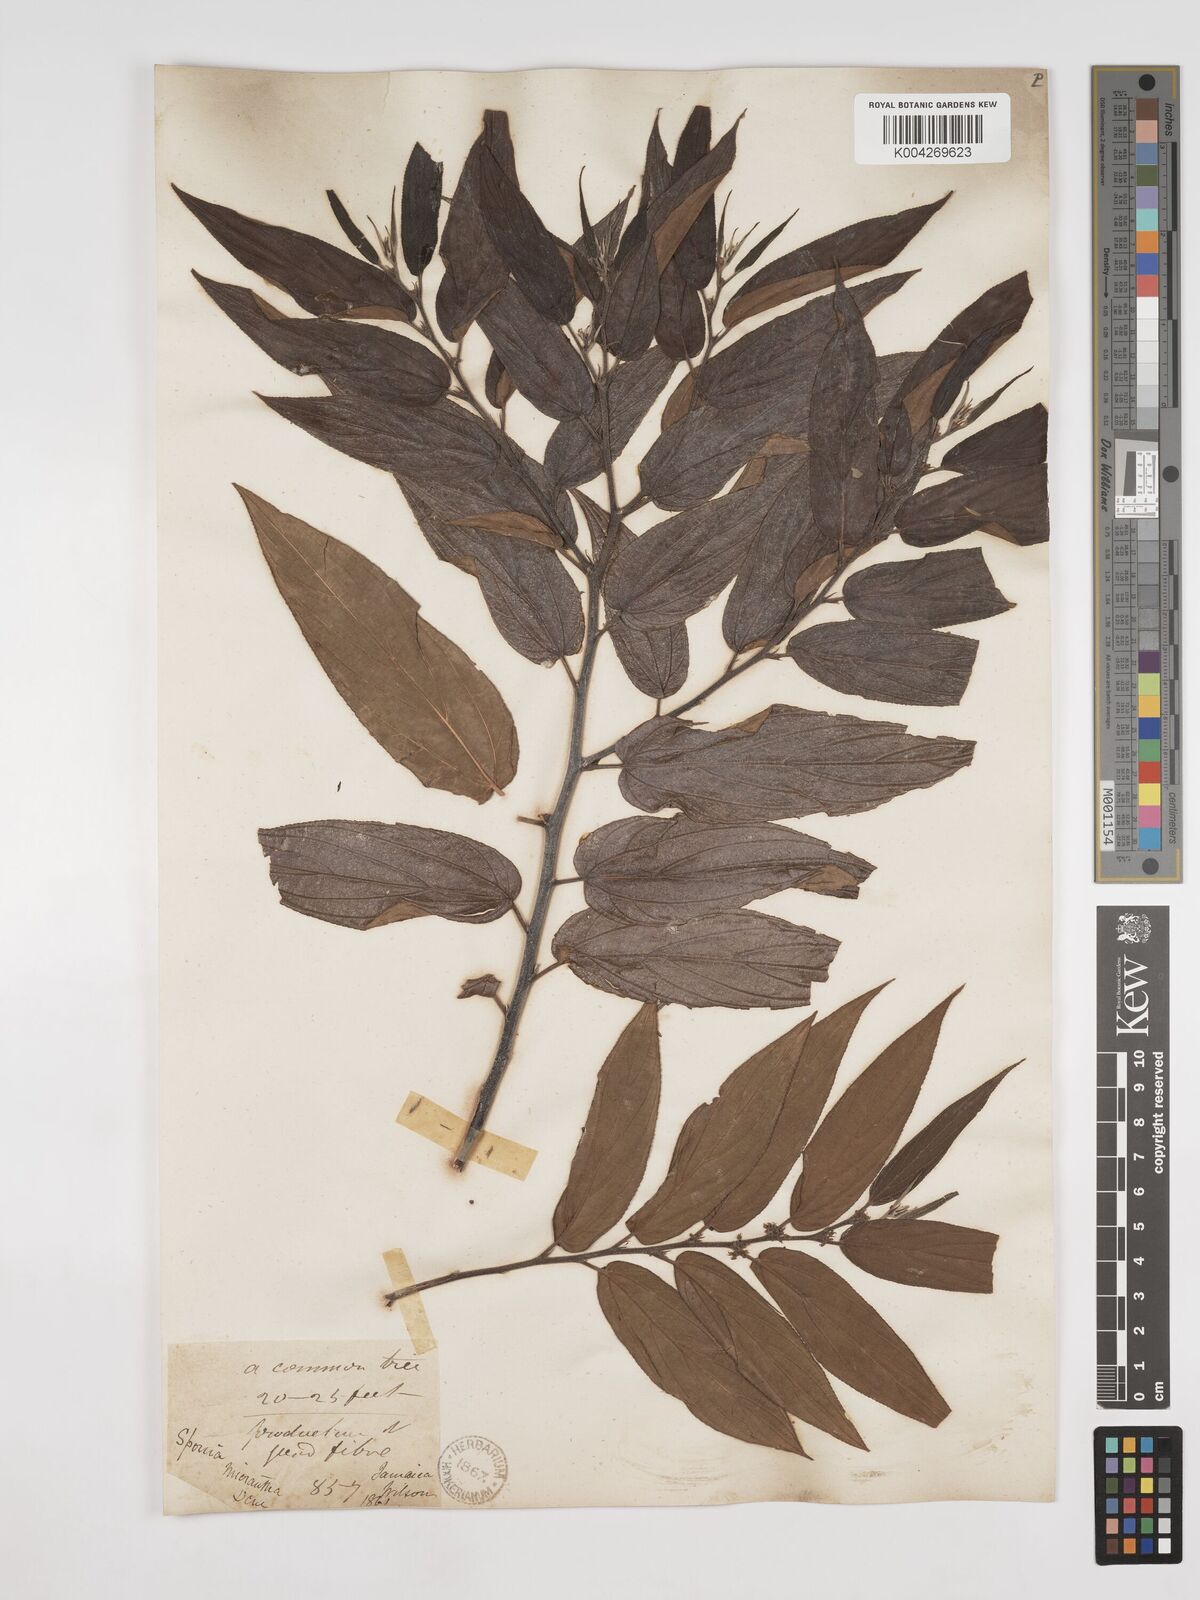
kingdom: Plantae
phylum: Tracheophyta
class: Magnoliopsida
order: Rosales
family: Cannabaceae
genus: Trema
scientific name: Trema micranthum
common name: Jamaican nettletree
